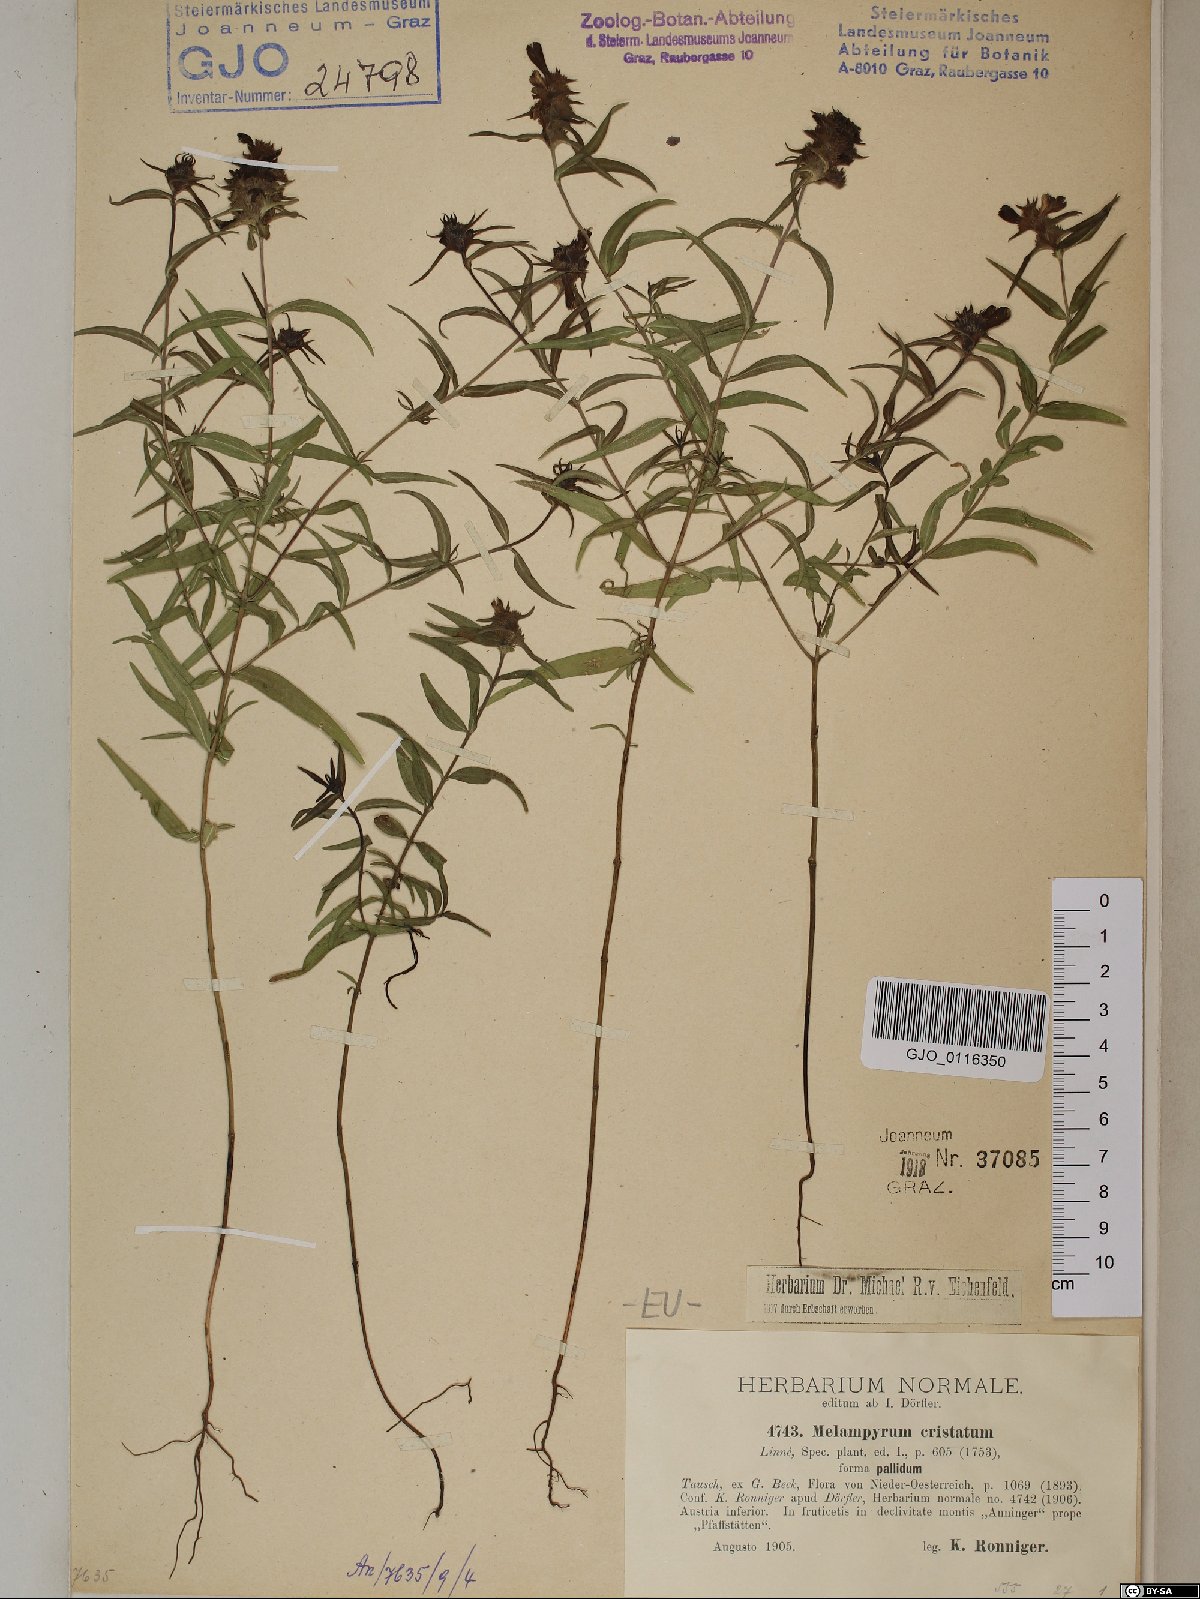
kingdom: Plantae
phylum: Tracheophyta
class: Magnoliopsida
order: Lamiales
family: Orobanchaceae
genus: Melampyrum
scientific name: Melampyrum cristatum
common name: Crested cow-wheat
